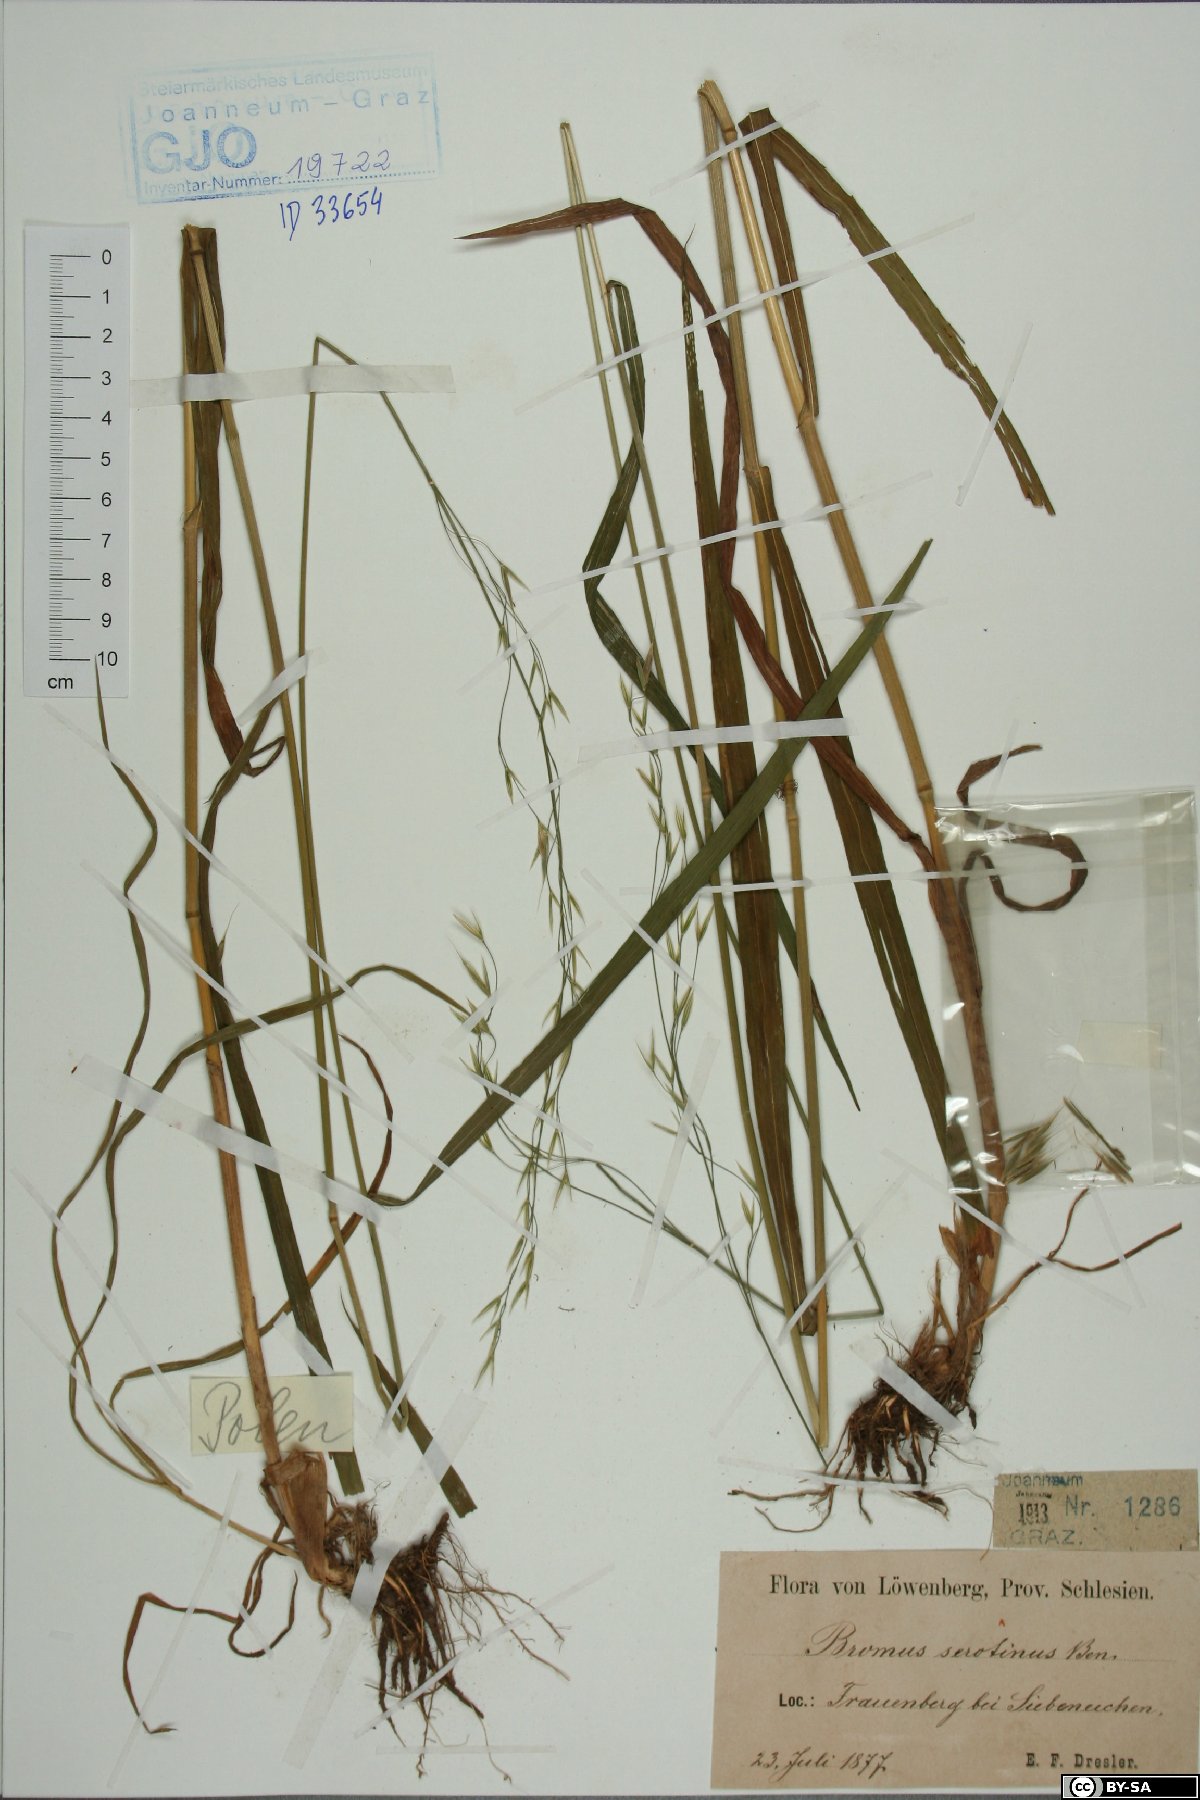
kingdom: Plantae
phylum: Tracheophyta
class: Liliopsida
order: Poales
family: Poaceae
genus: Bromus
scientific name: Bromus ramosus
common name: Hairy brome
